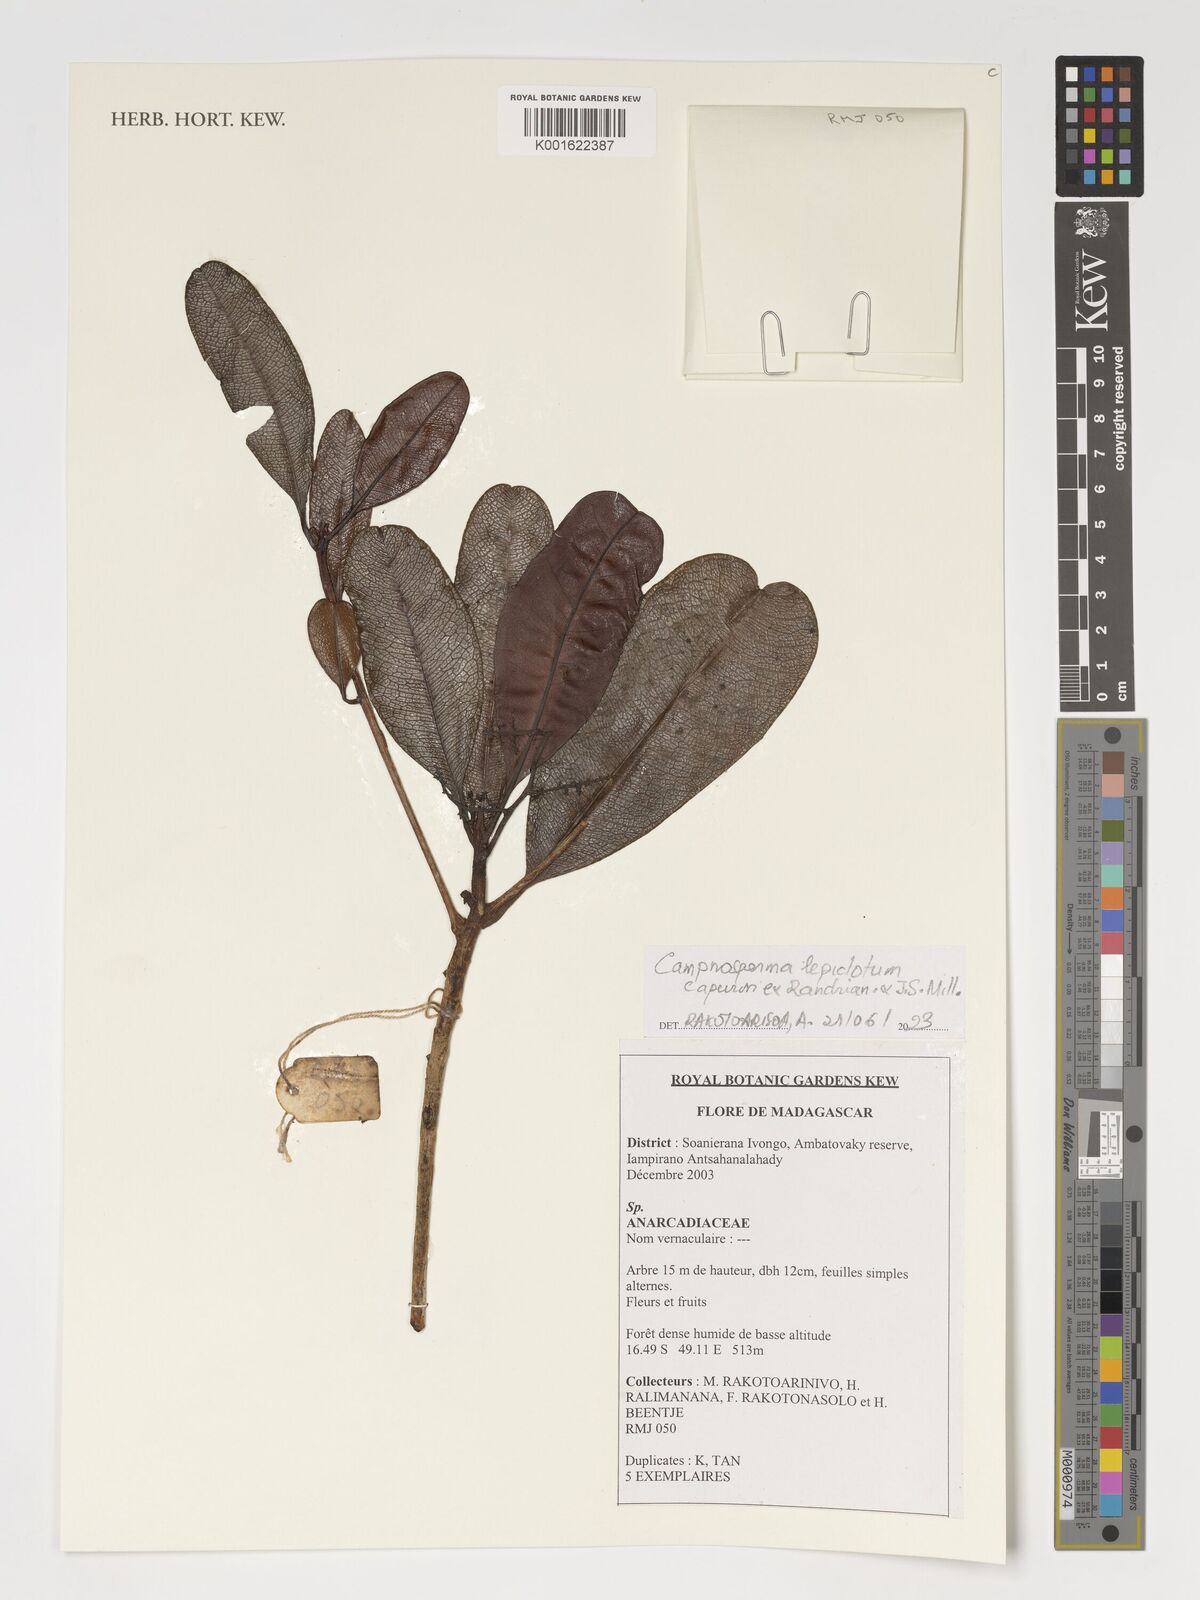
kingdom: Plantae
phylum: Tracheophyta
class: Magnoliopsida
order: Sapindales
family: Anacardiaceae
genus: Campnosperma
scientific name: Campnosperma lepidotum
